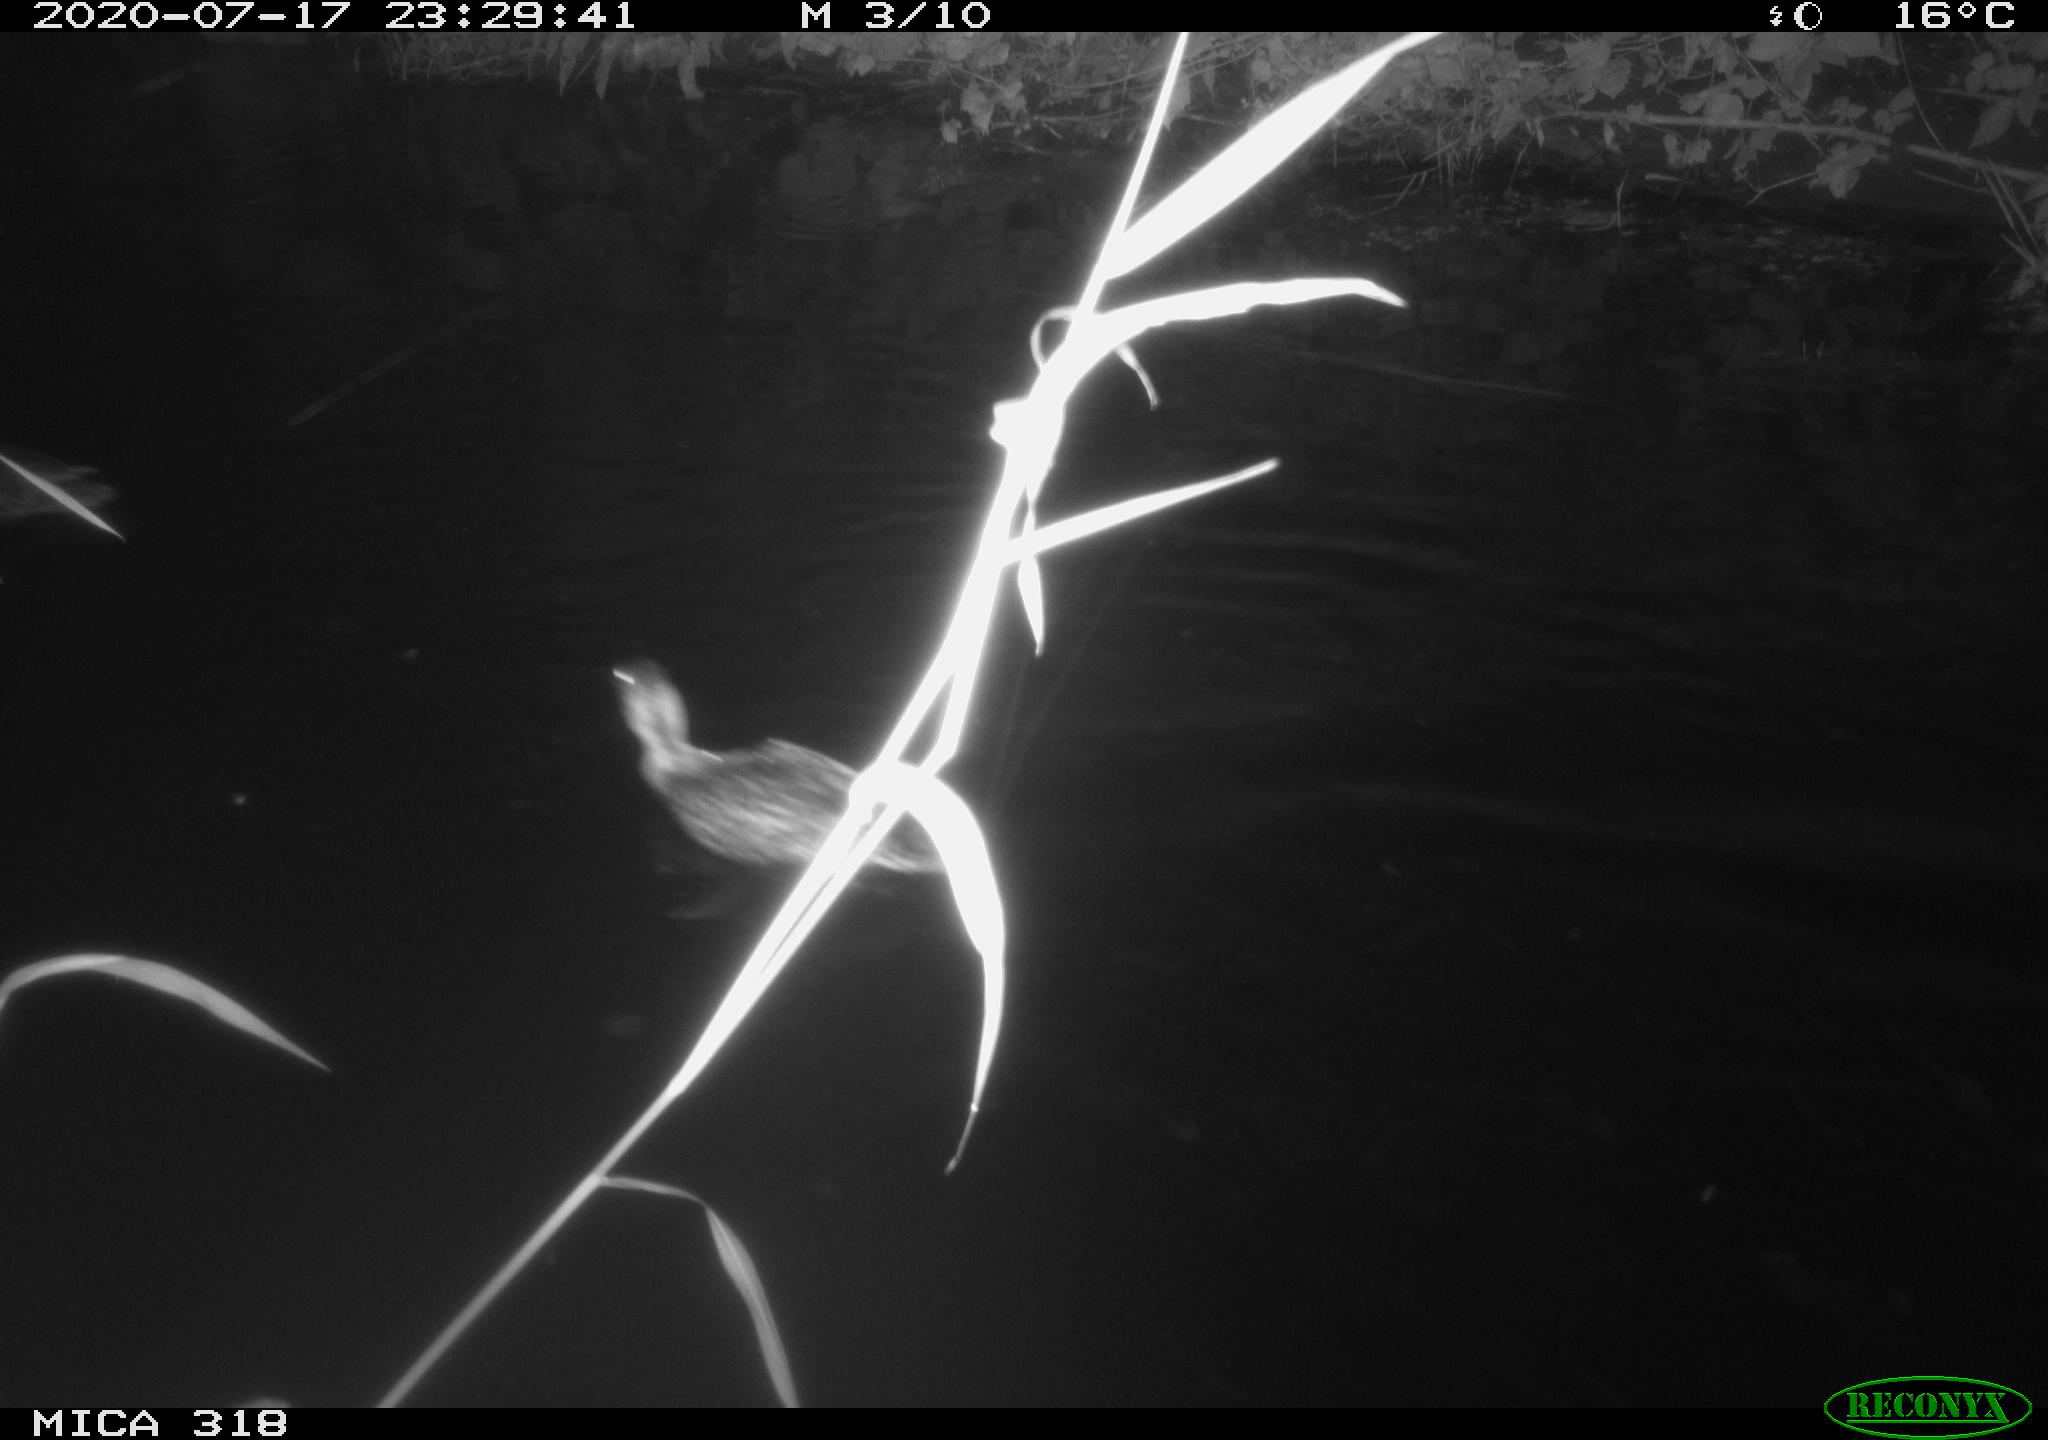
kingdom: Animalia
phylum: Chordata
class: Aves
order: Anseriformes
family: Anatidae
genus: Anas
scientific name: Anas platyrhynchos
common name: Mallard
